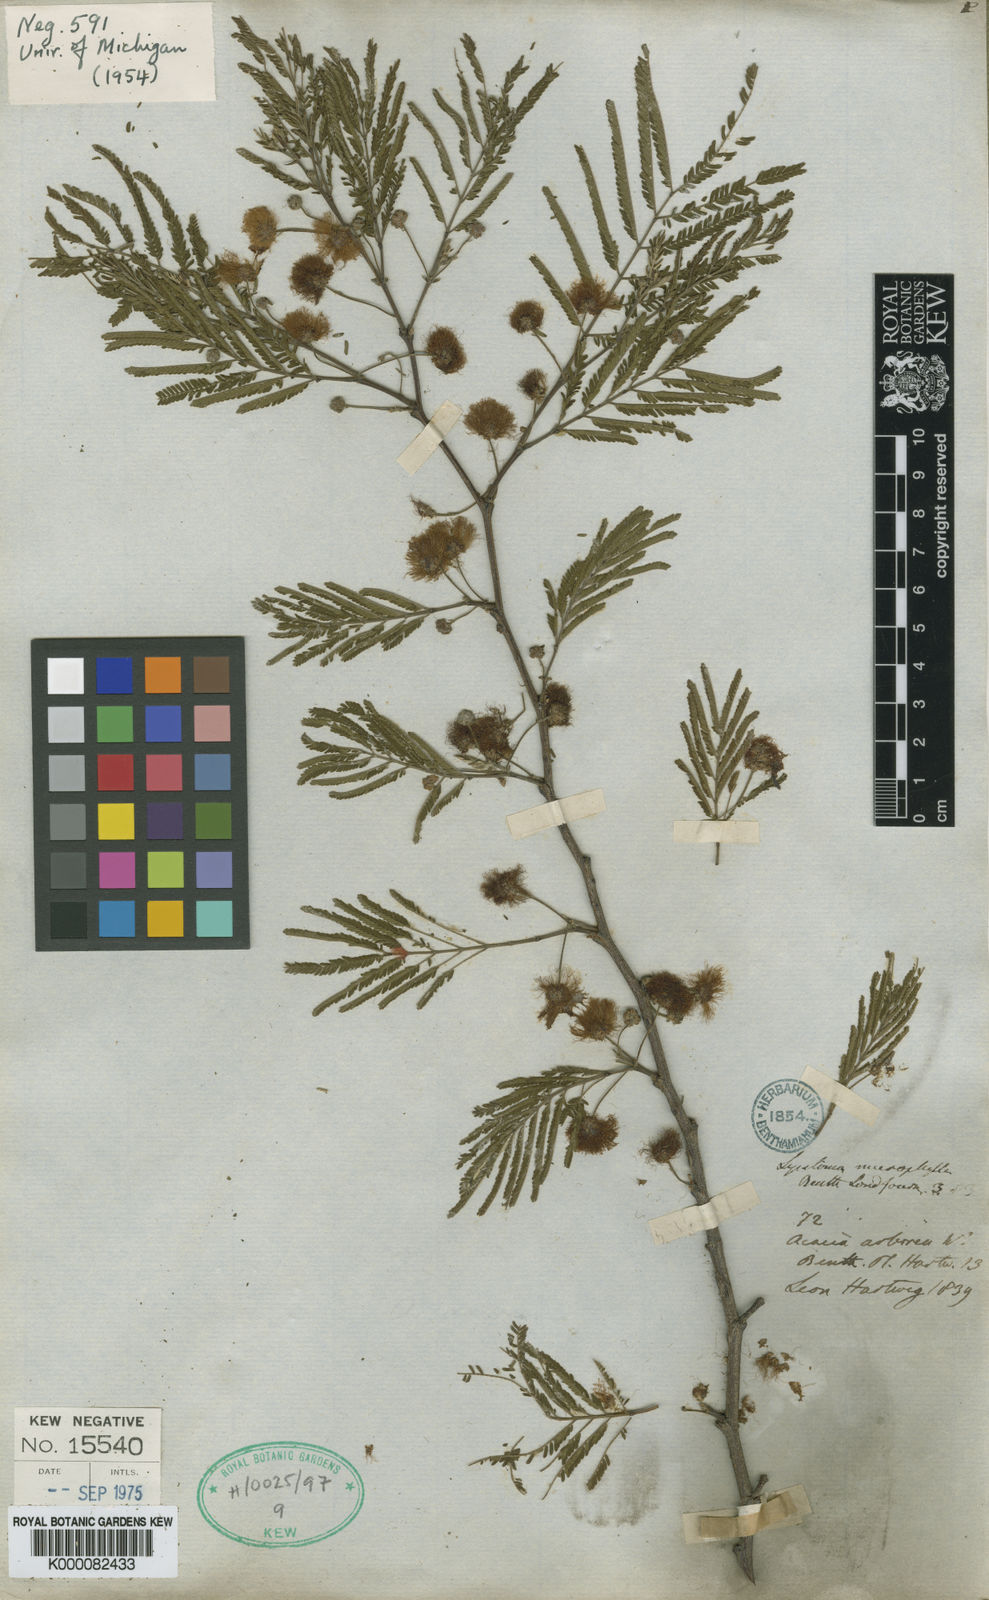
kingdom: Plantae
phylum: Tracheophyta
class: Magnoliopsida
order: Fabales
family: Fabaceae
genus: Lysiloma
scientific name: Lysiloma divaricatum
